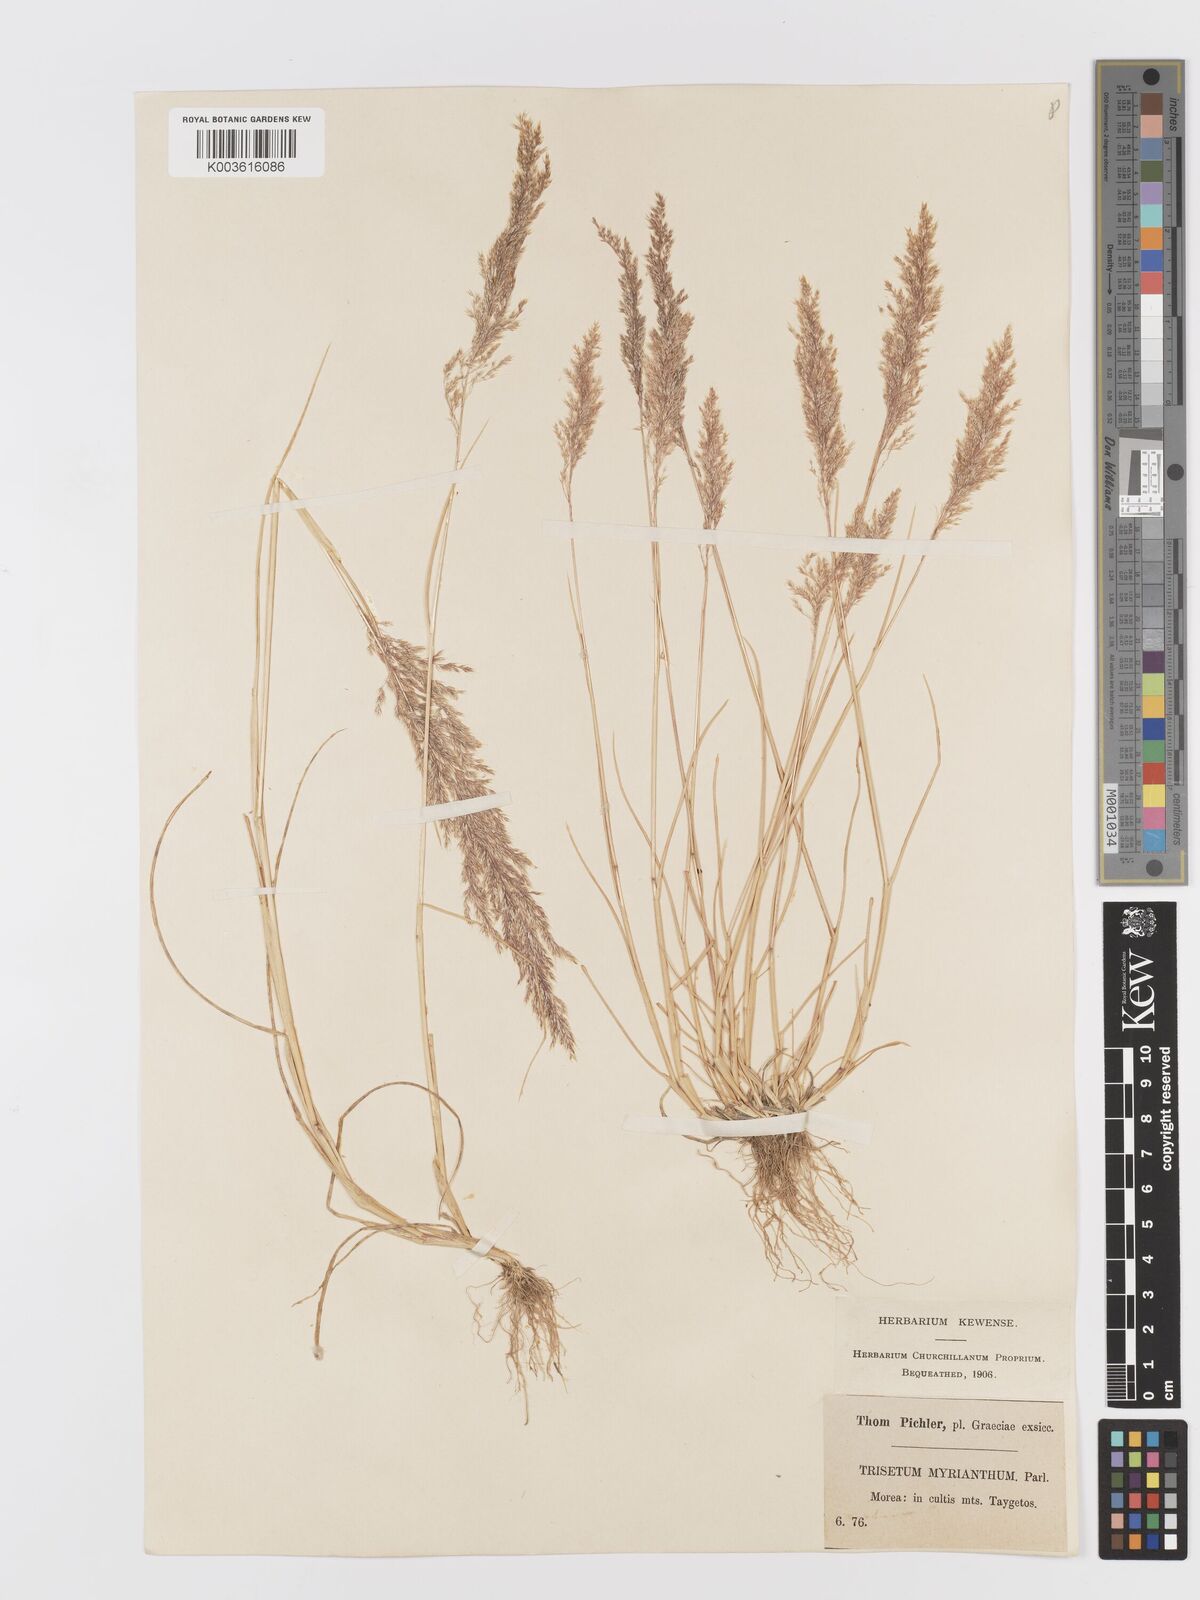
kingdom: Plantae
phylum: Tracheophyta
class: Liliopsida
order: Poales
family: Poaceae
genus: Parvotrisetum
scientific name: Parvotrisetum myrianthum
